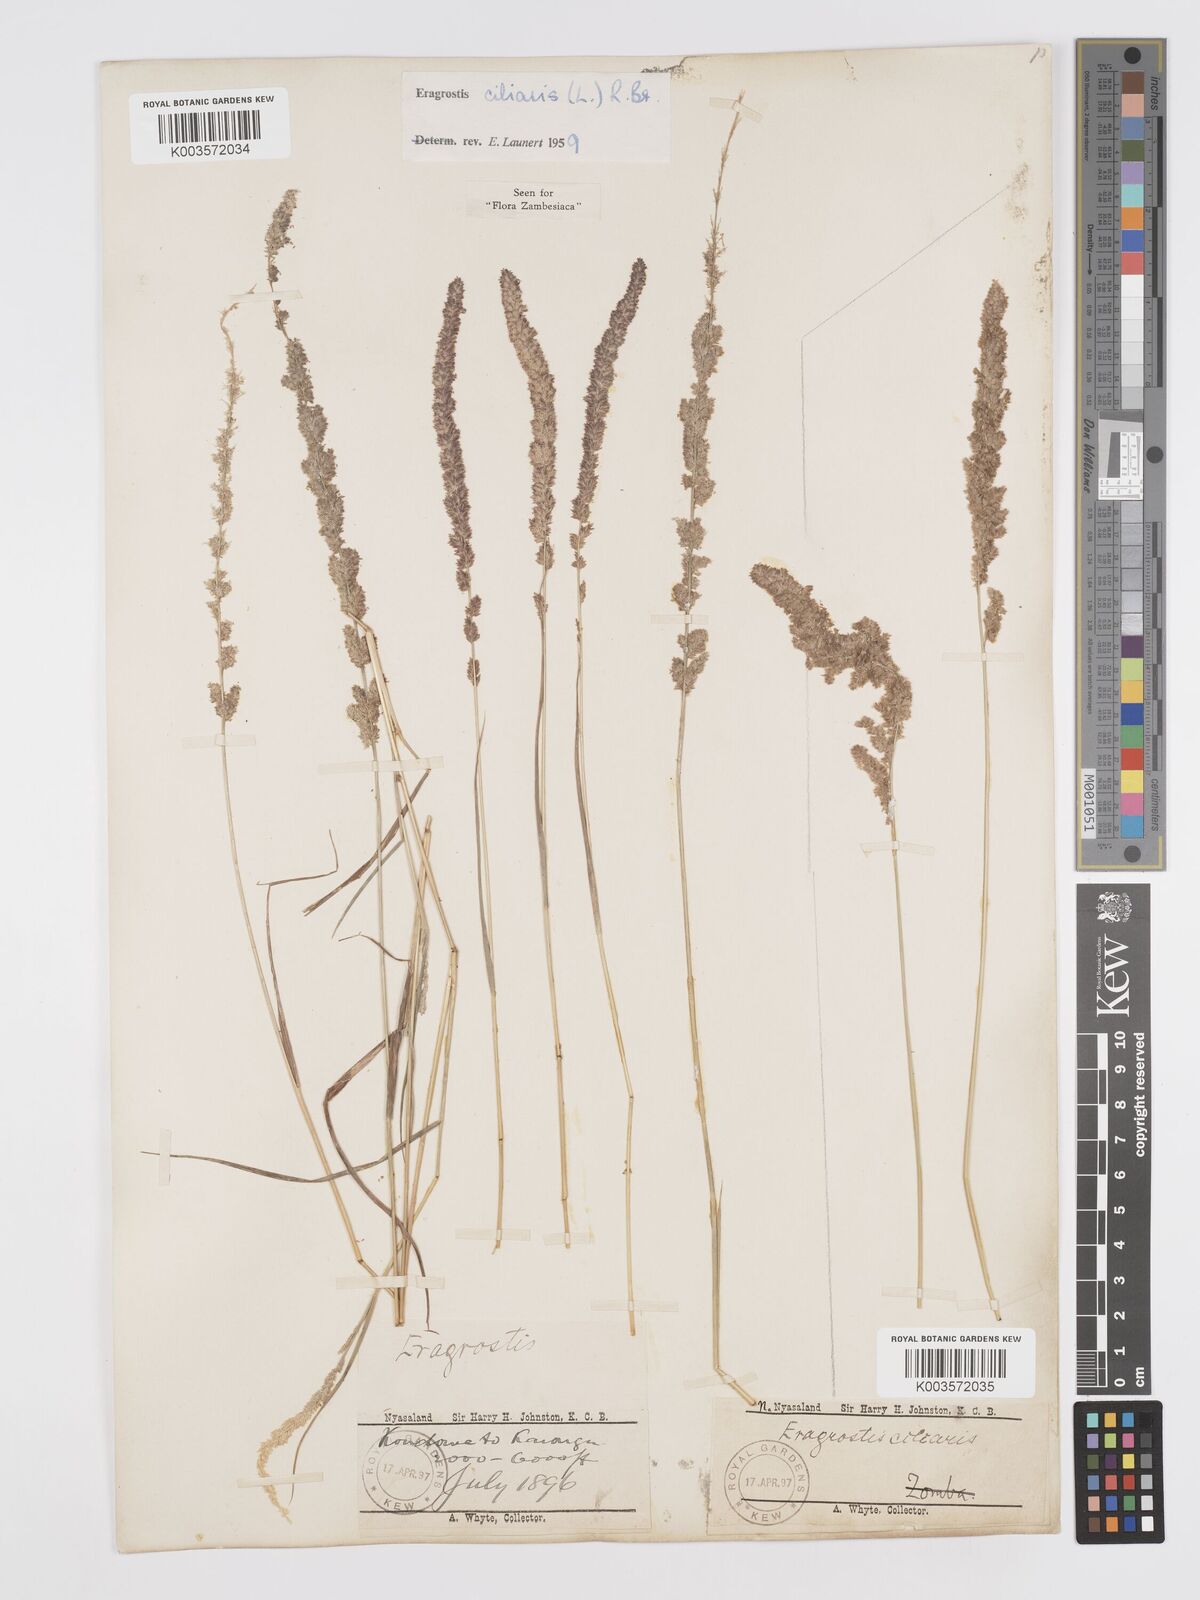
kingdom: Plantae
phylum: Tracheophyta
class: Liliopsida
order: Poales
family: Poaceae
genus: Eragrostis
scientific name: Eragrostis ciliaris
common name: Gophertail lovegrass
